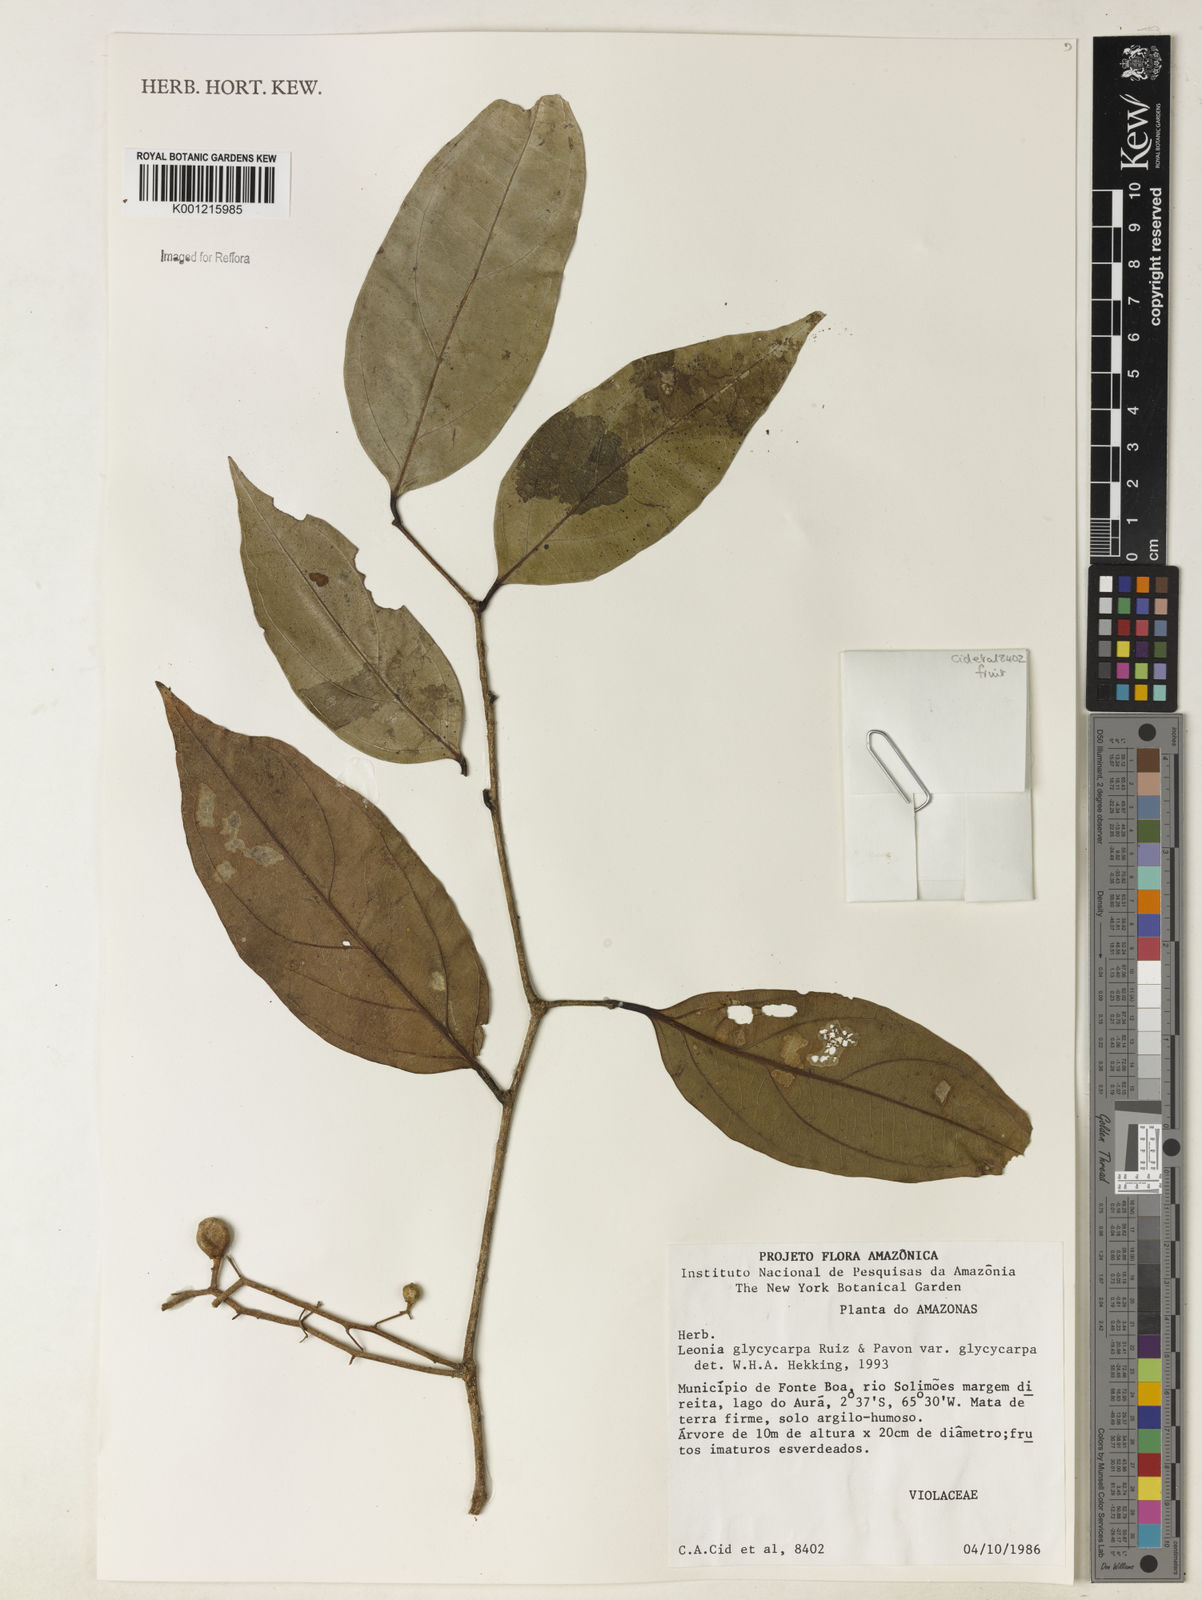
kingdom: Plantae
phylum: Tracheophyta
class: Magnoliopsida
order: Malpighiales
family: Violaceae
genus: Leonia
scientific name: Leonia glycycarpa
